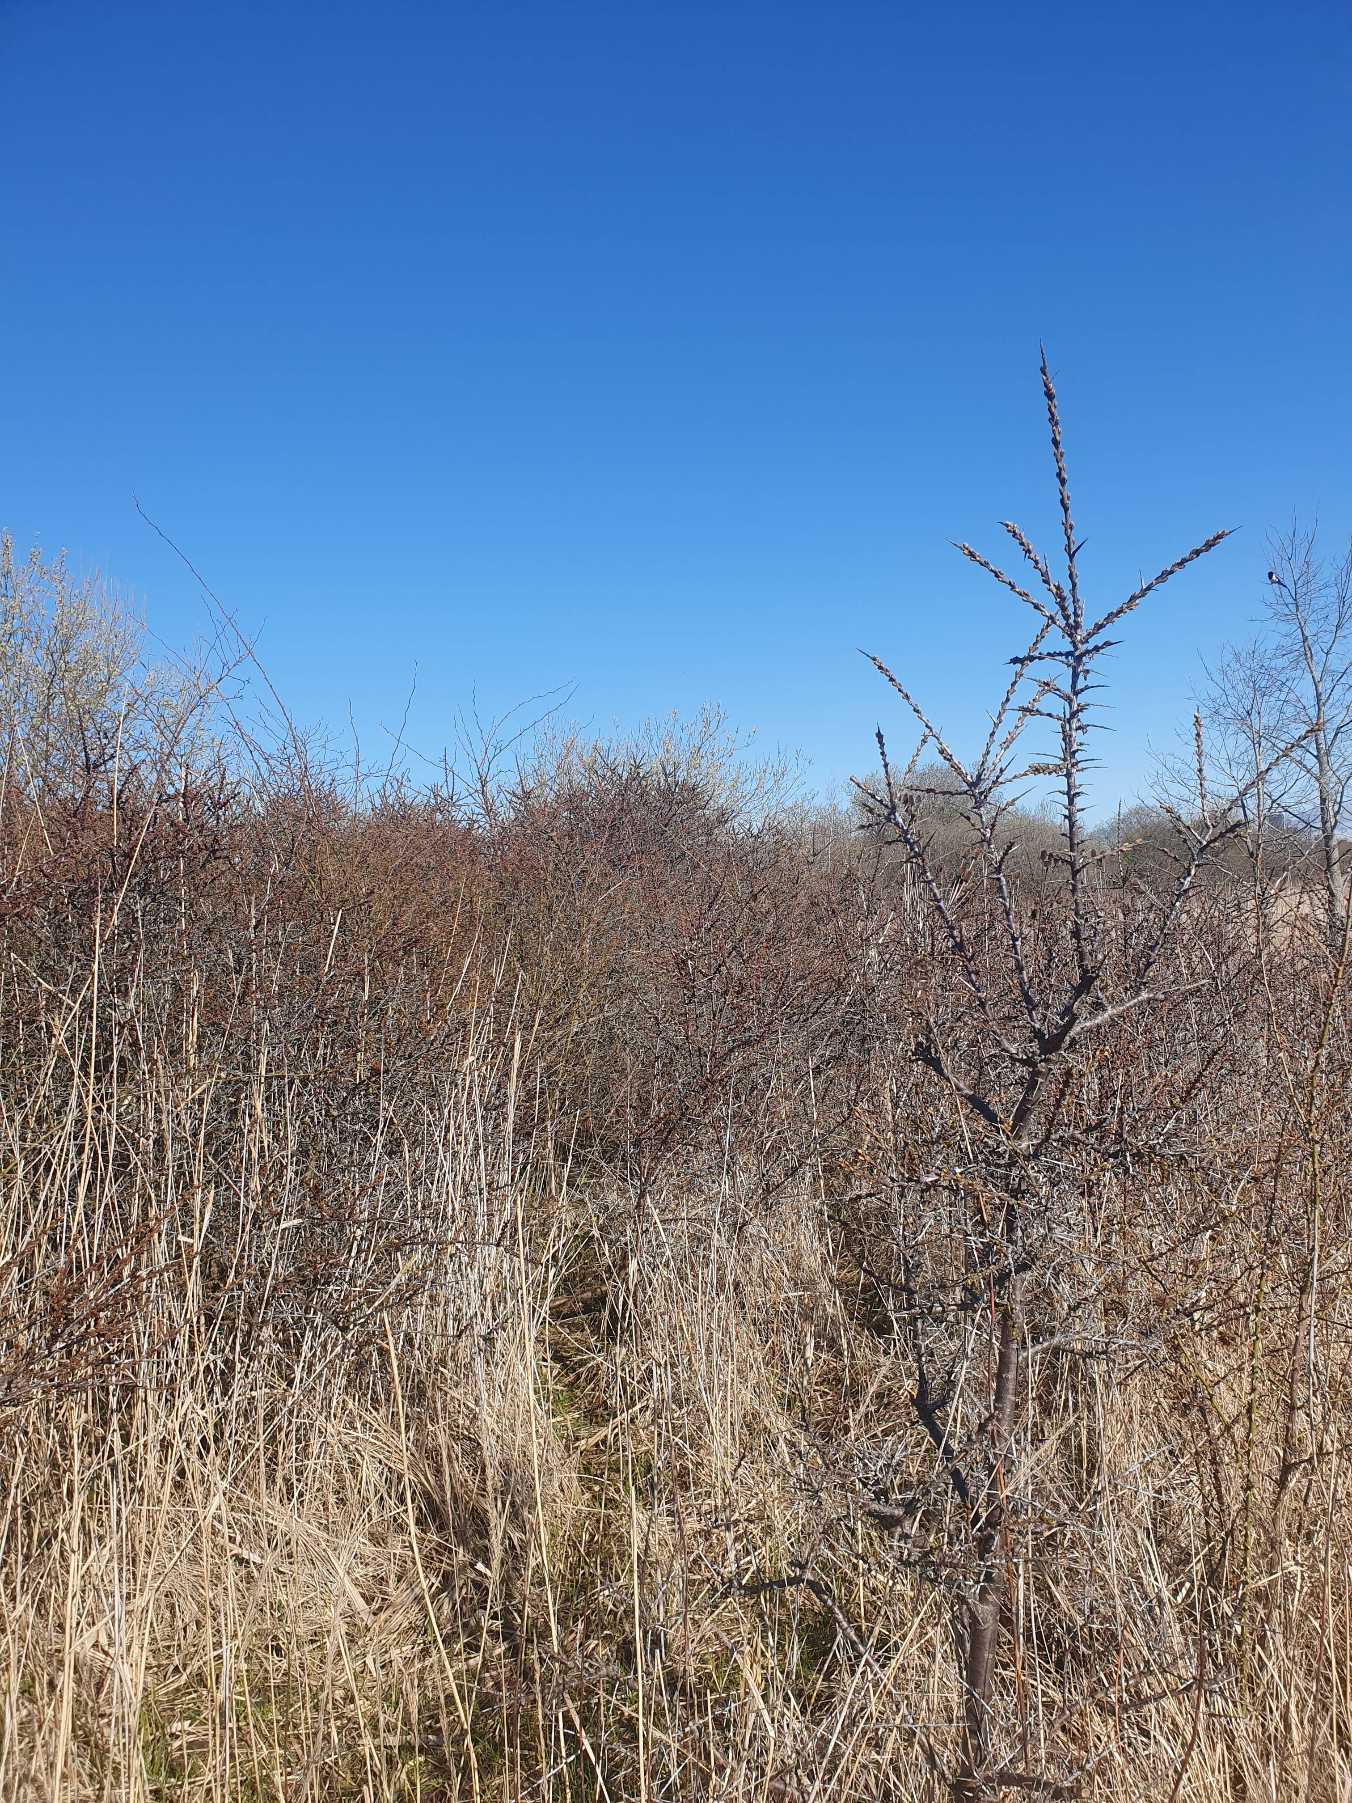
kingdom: Plantae
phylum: Tracheophyta
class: Magnoliopsida
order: Rosales
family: Elaeagnaceae
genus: Hippophae
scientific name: Hippophae rhamnoides
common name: Havtorn
